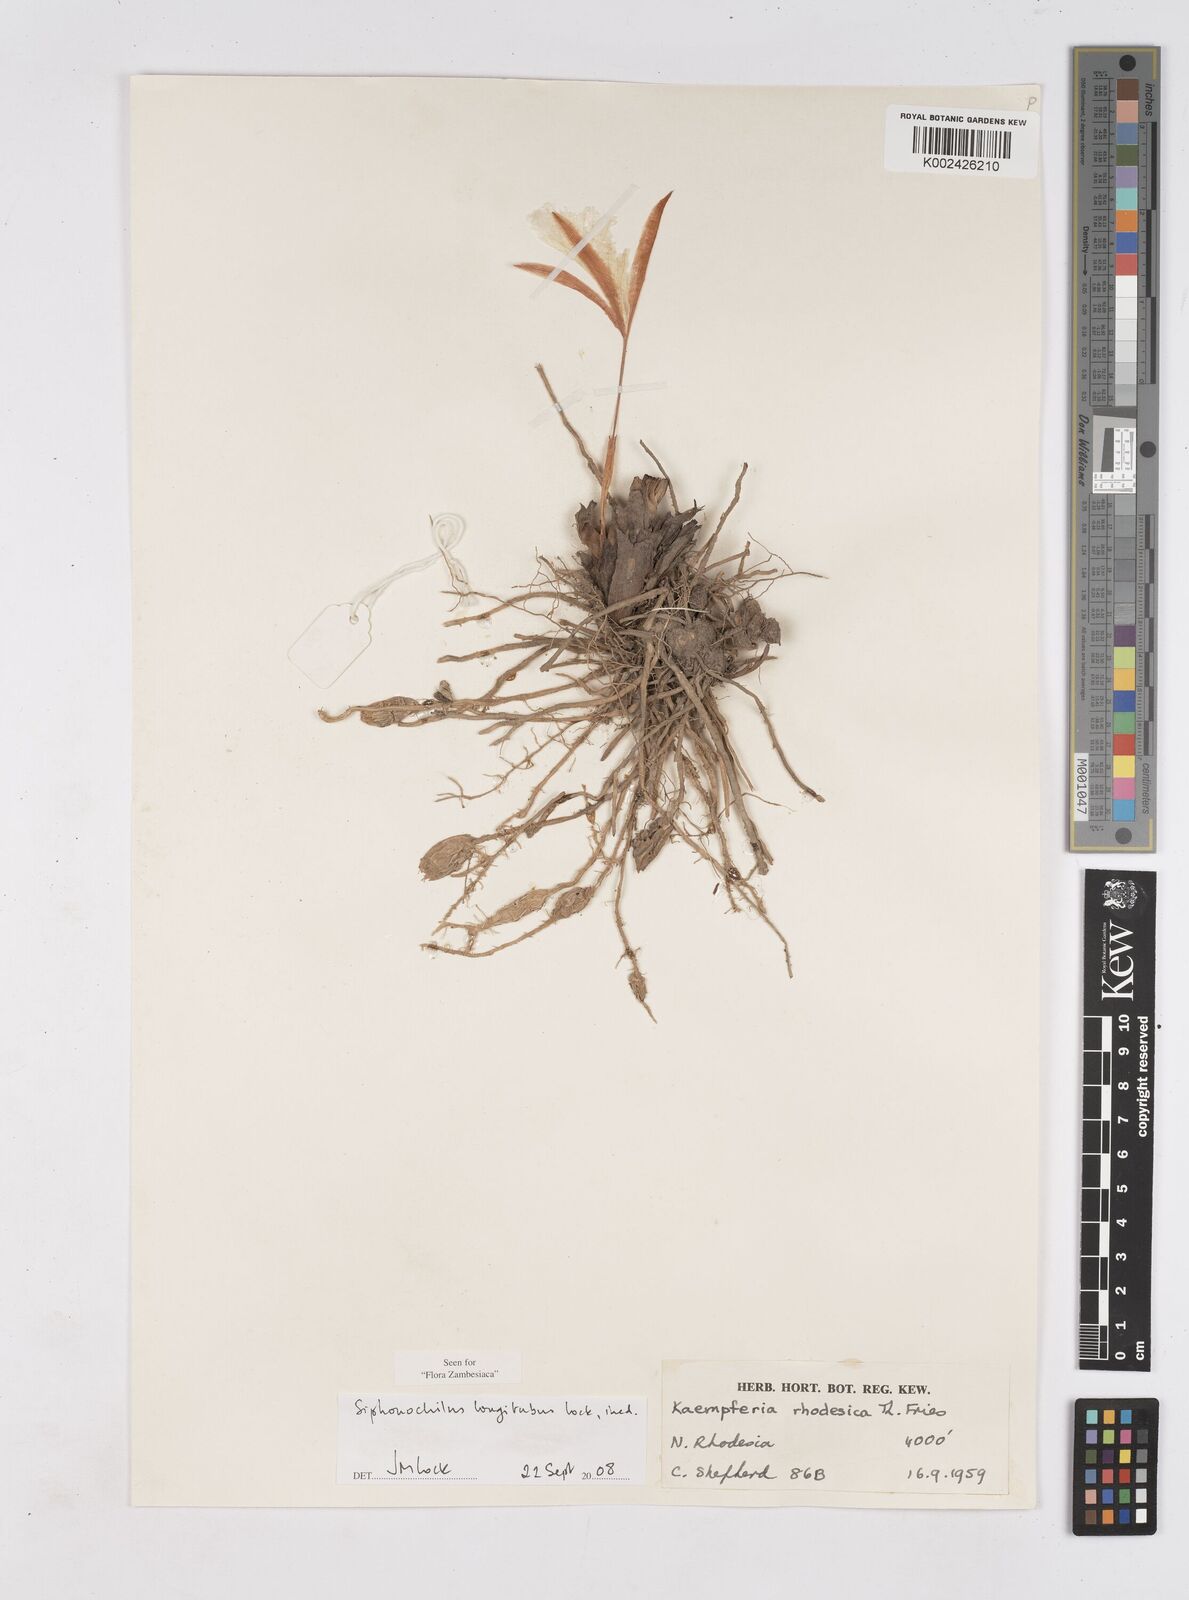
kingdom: Plantae
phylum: Tracheophyta
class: Liliopsida
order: Zingiberales
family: Zingiberaceae
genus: Siphonochilus
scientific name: Siphonochilus longitubus
